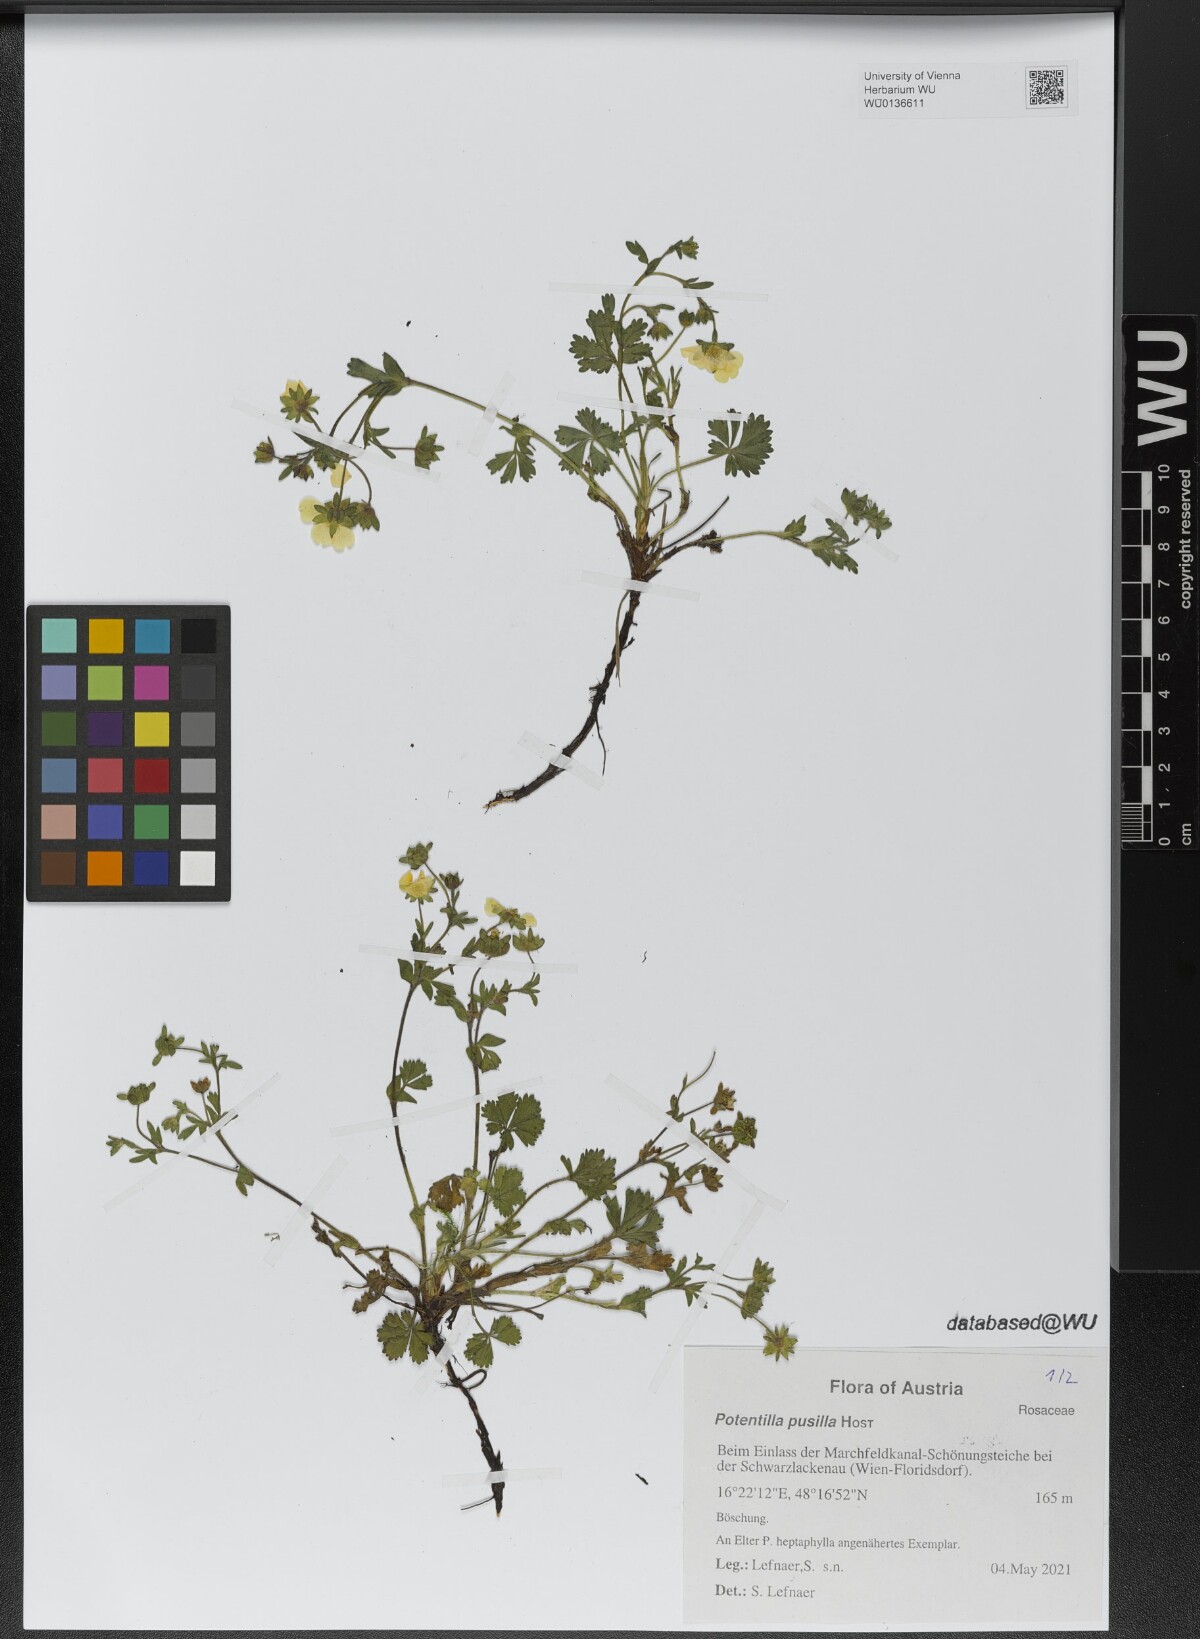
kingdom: Plantae
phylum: Tracheophyta
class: Magnoliopsida
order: Rosales
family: Rosaceae
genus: Potentilla
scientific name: Potentilla pusilla
